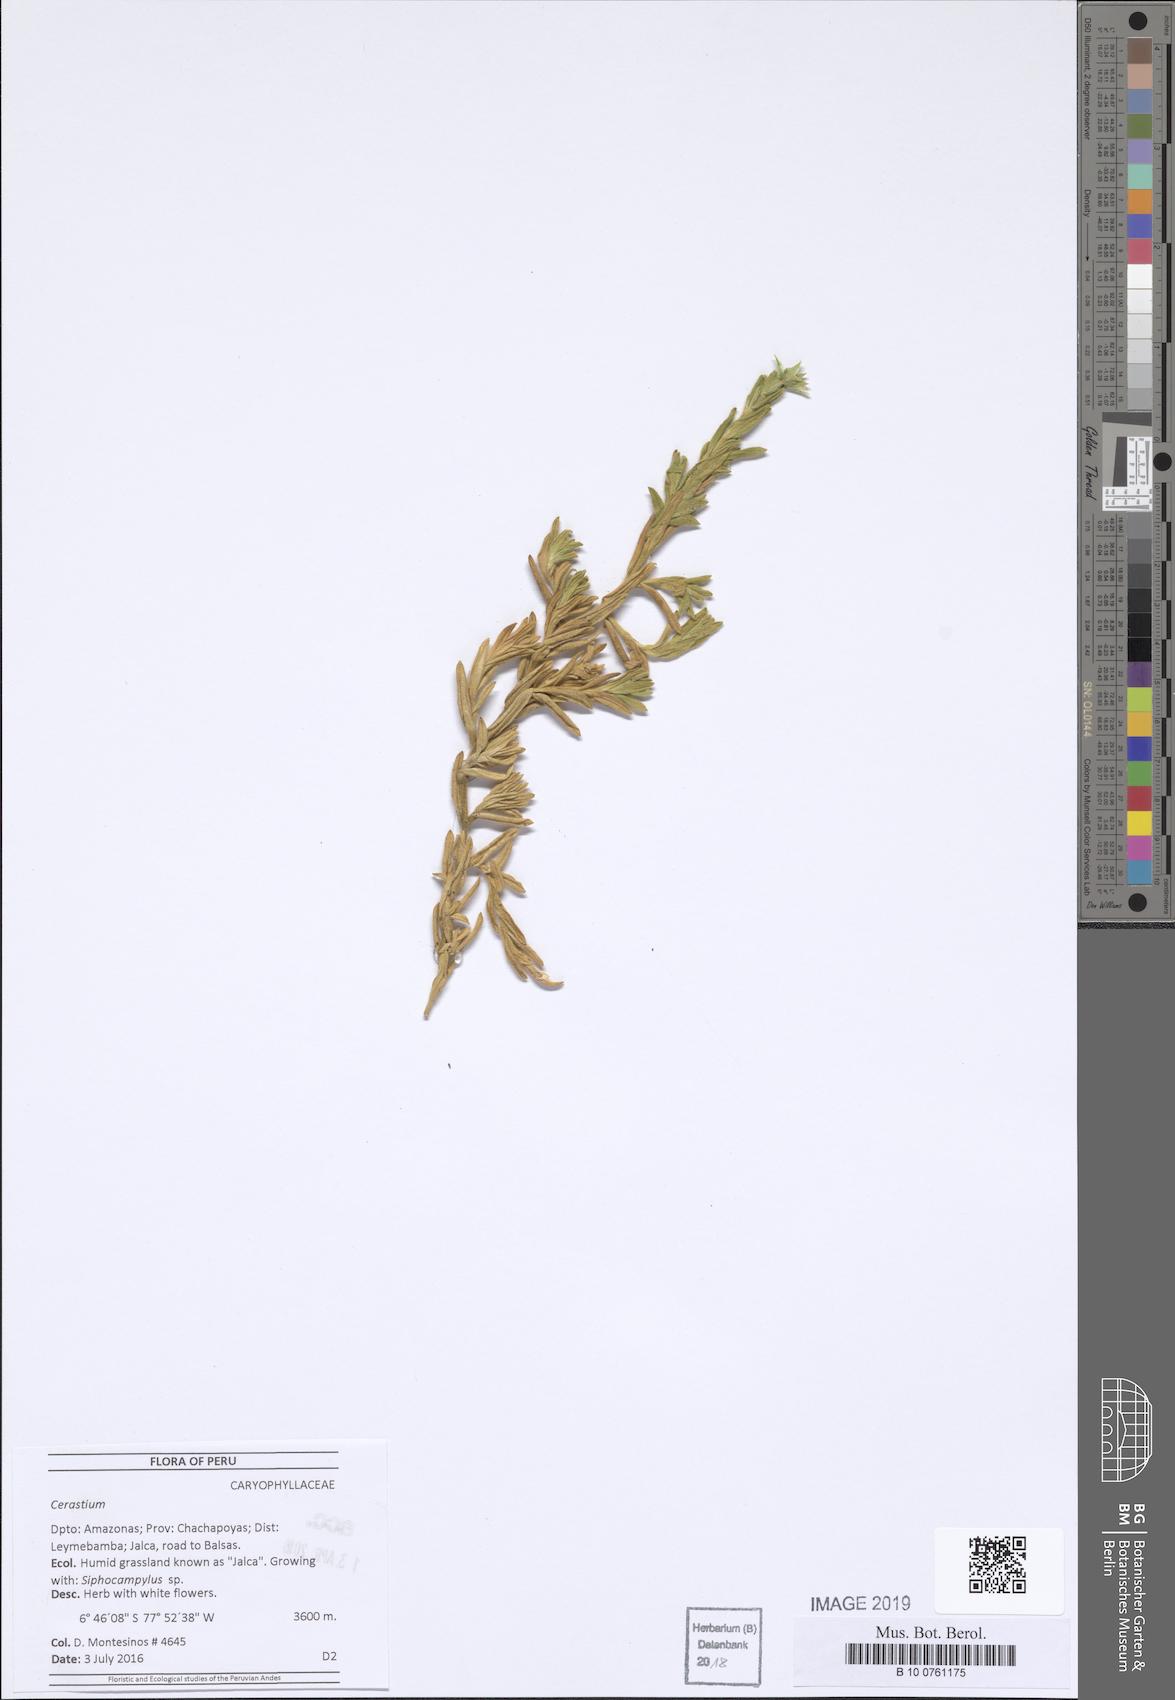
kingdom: Plantae
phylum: Tracheophyta
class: Magnoliopsida
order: Caryophyllales
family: Caryophyllaceae
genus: Cerastium
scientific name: Cerastium
